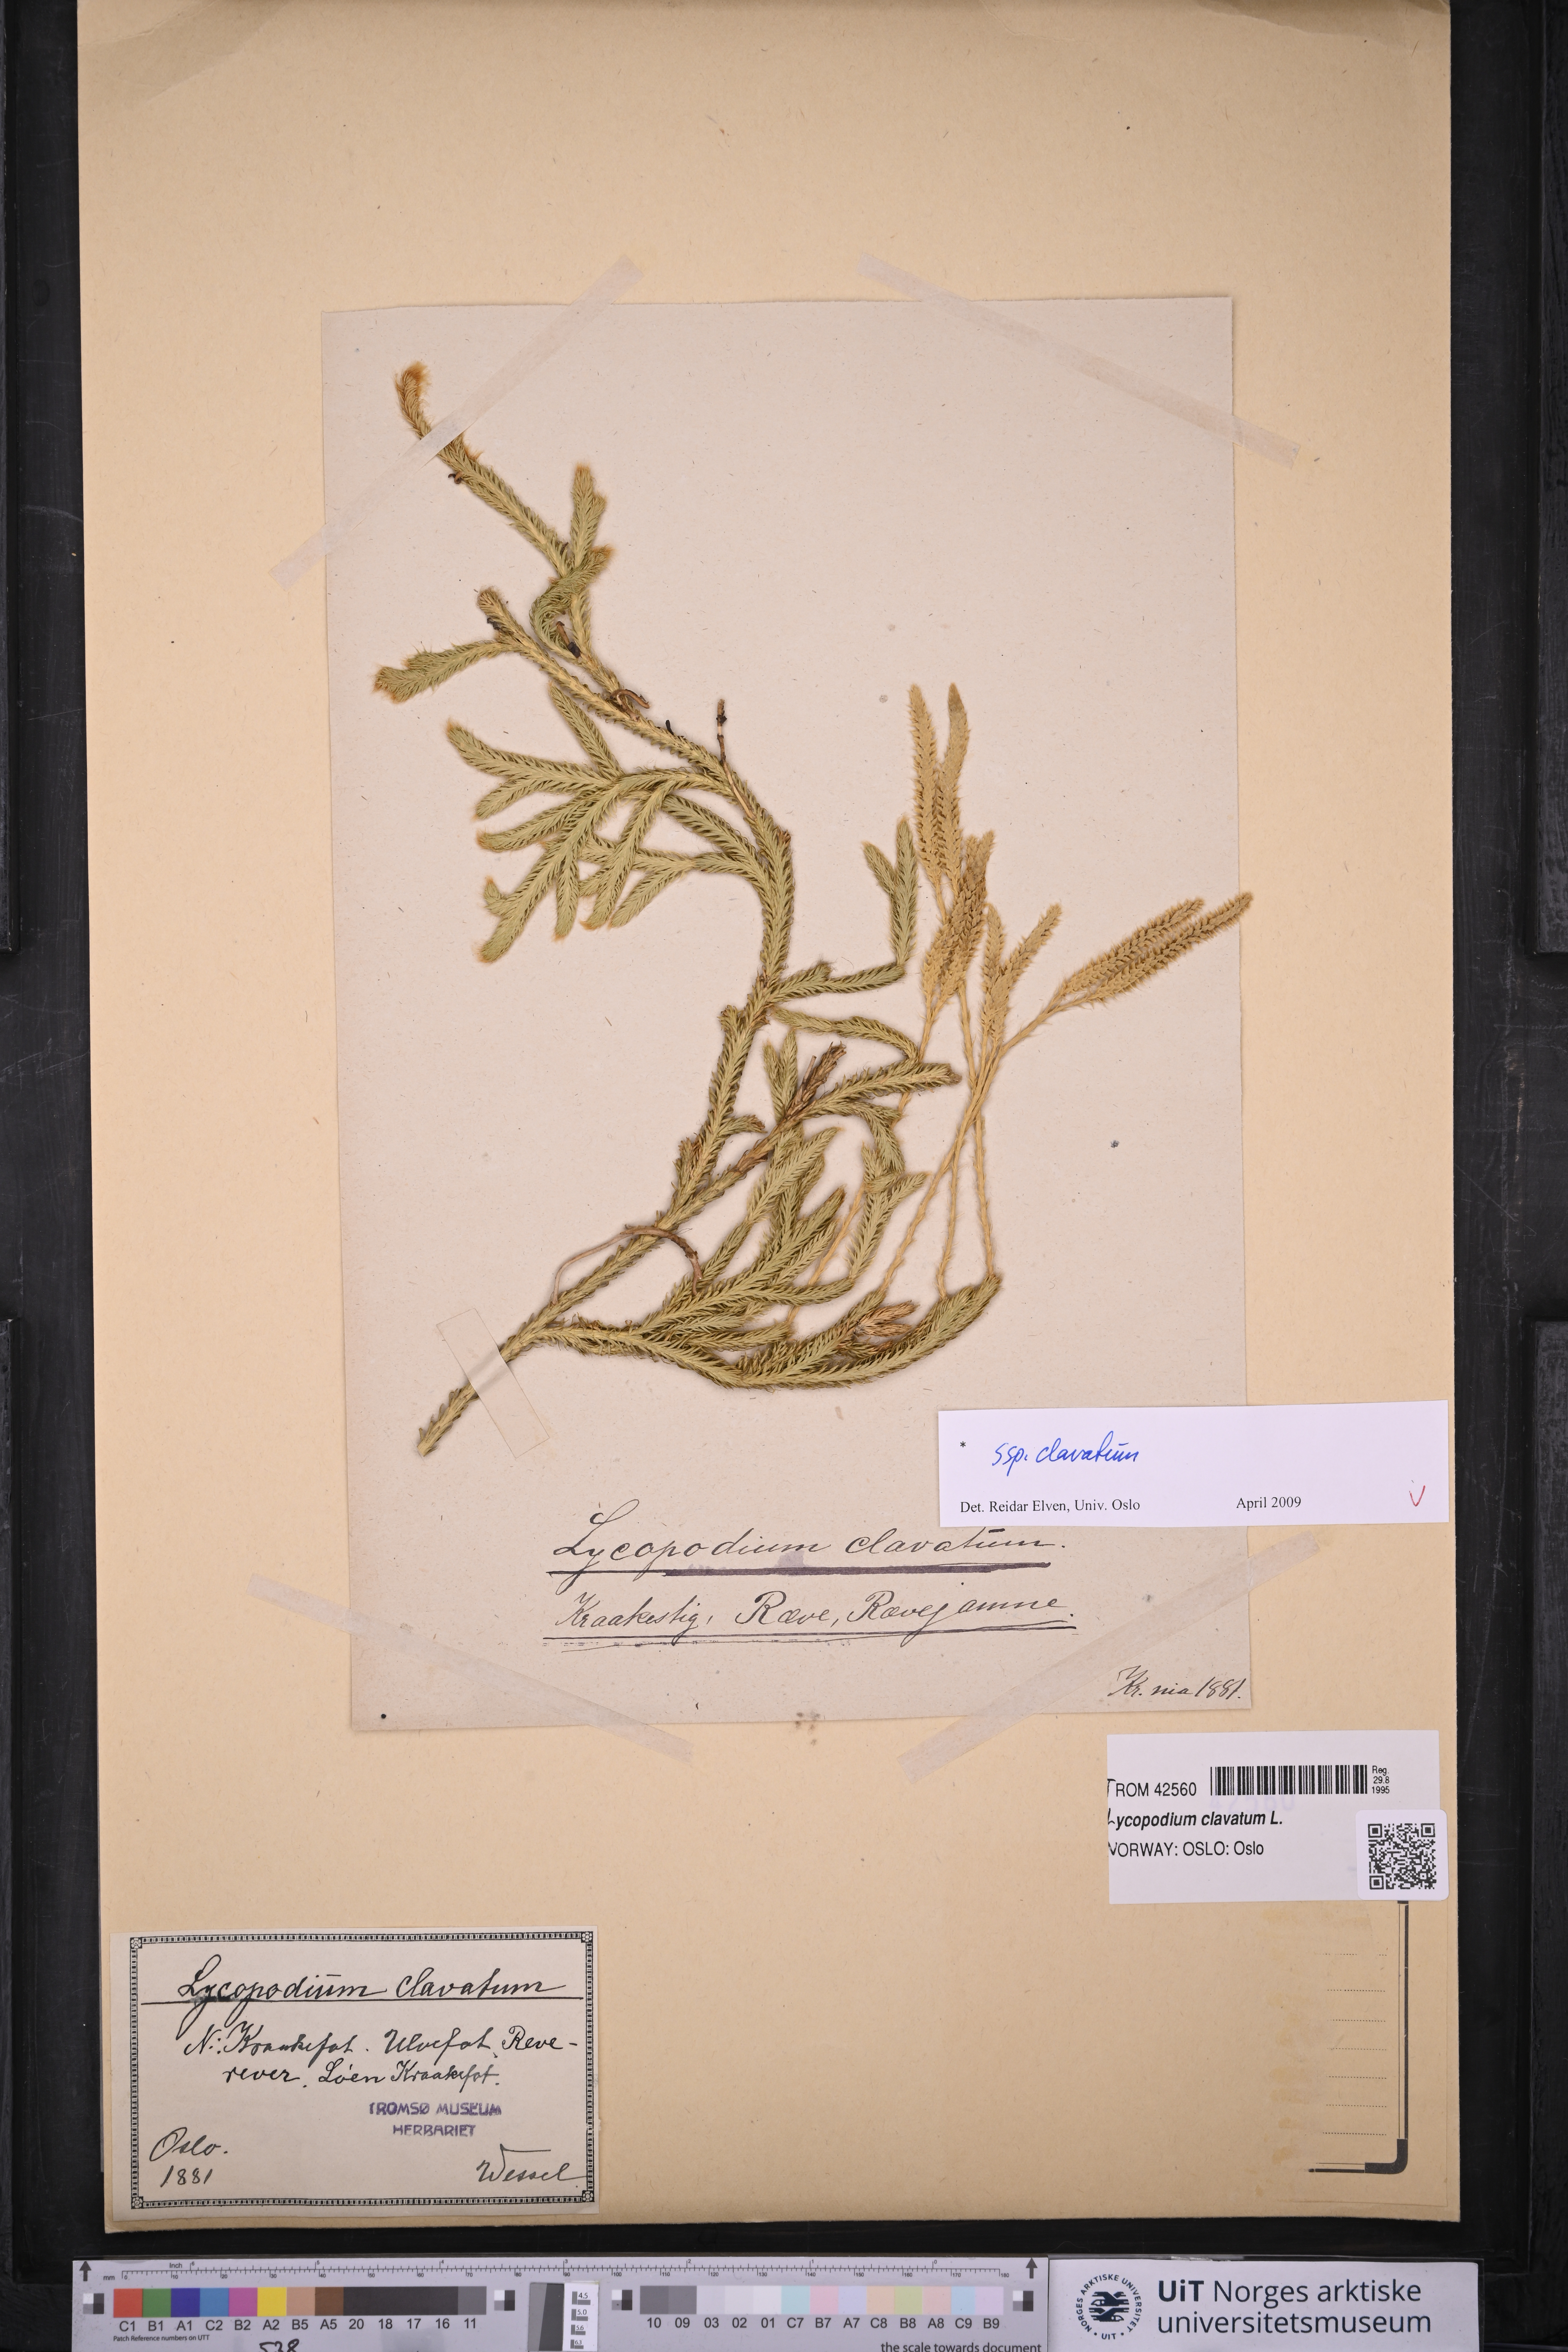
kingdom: Plantae
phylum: Tracheophyta
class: Lycopodiopsida
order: Lycopodiales
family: Lycopodiaceae
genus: Lycopodium
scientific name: Lycopodium clavatum
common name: Stag's-horn clubmoss
